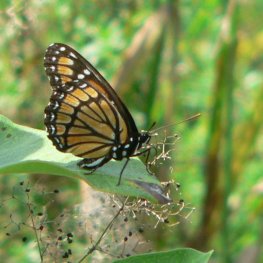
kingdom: Animalia
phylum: Arthropoda
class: Insecta
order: Lepidoptera
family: Nymphalidae
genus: Limenitis
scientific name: Limenitis archippus
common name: Viceroy
